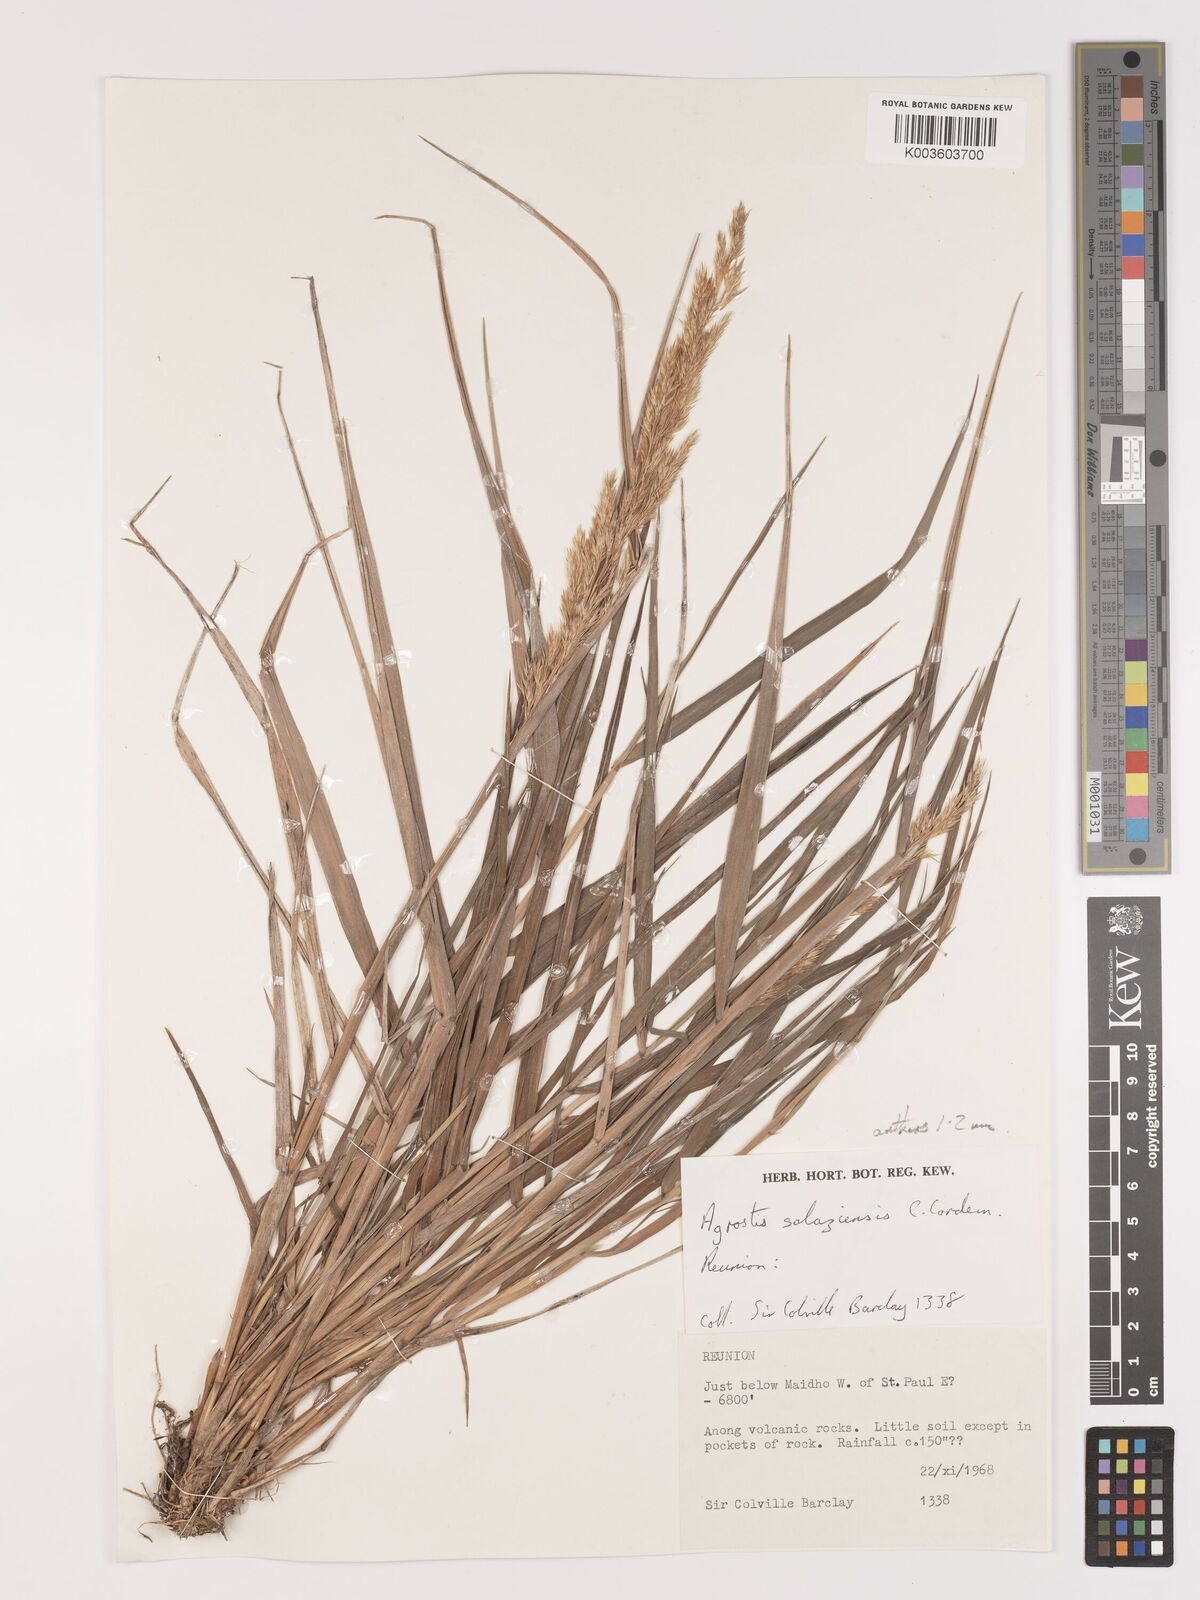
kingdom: Plantae
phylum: Tracheophyta
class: Liliopsida
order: Poales
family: Poaceae
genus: Agrostis
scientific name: Agrostis salaziensis
